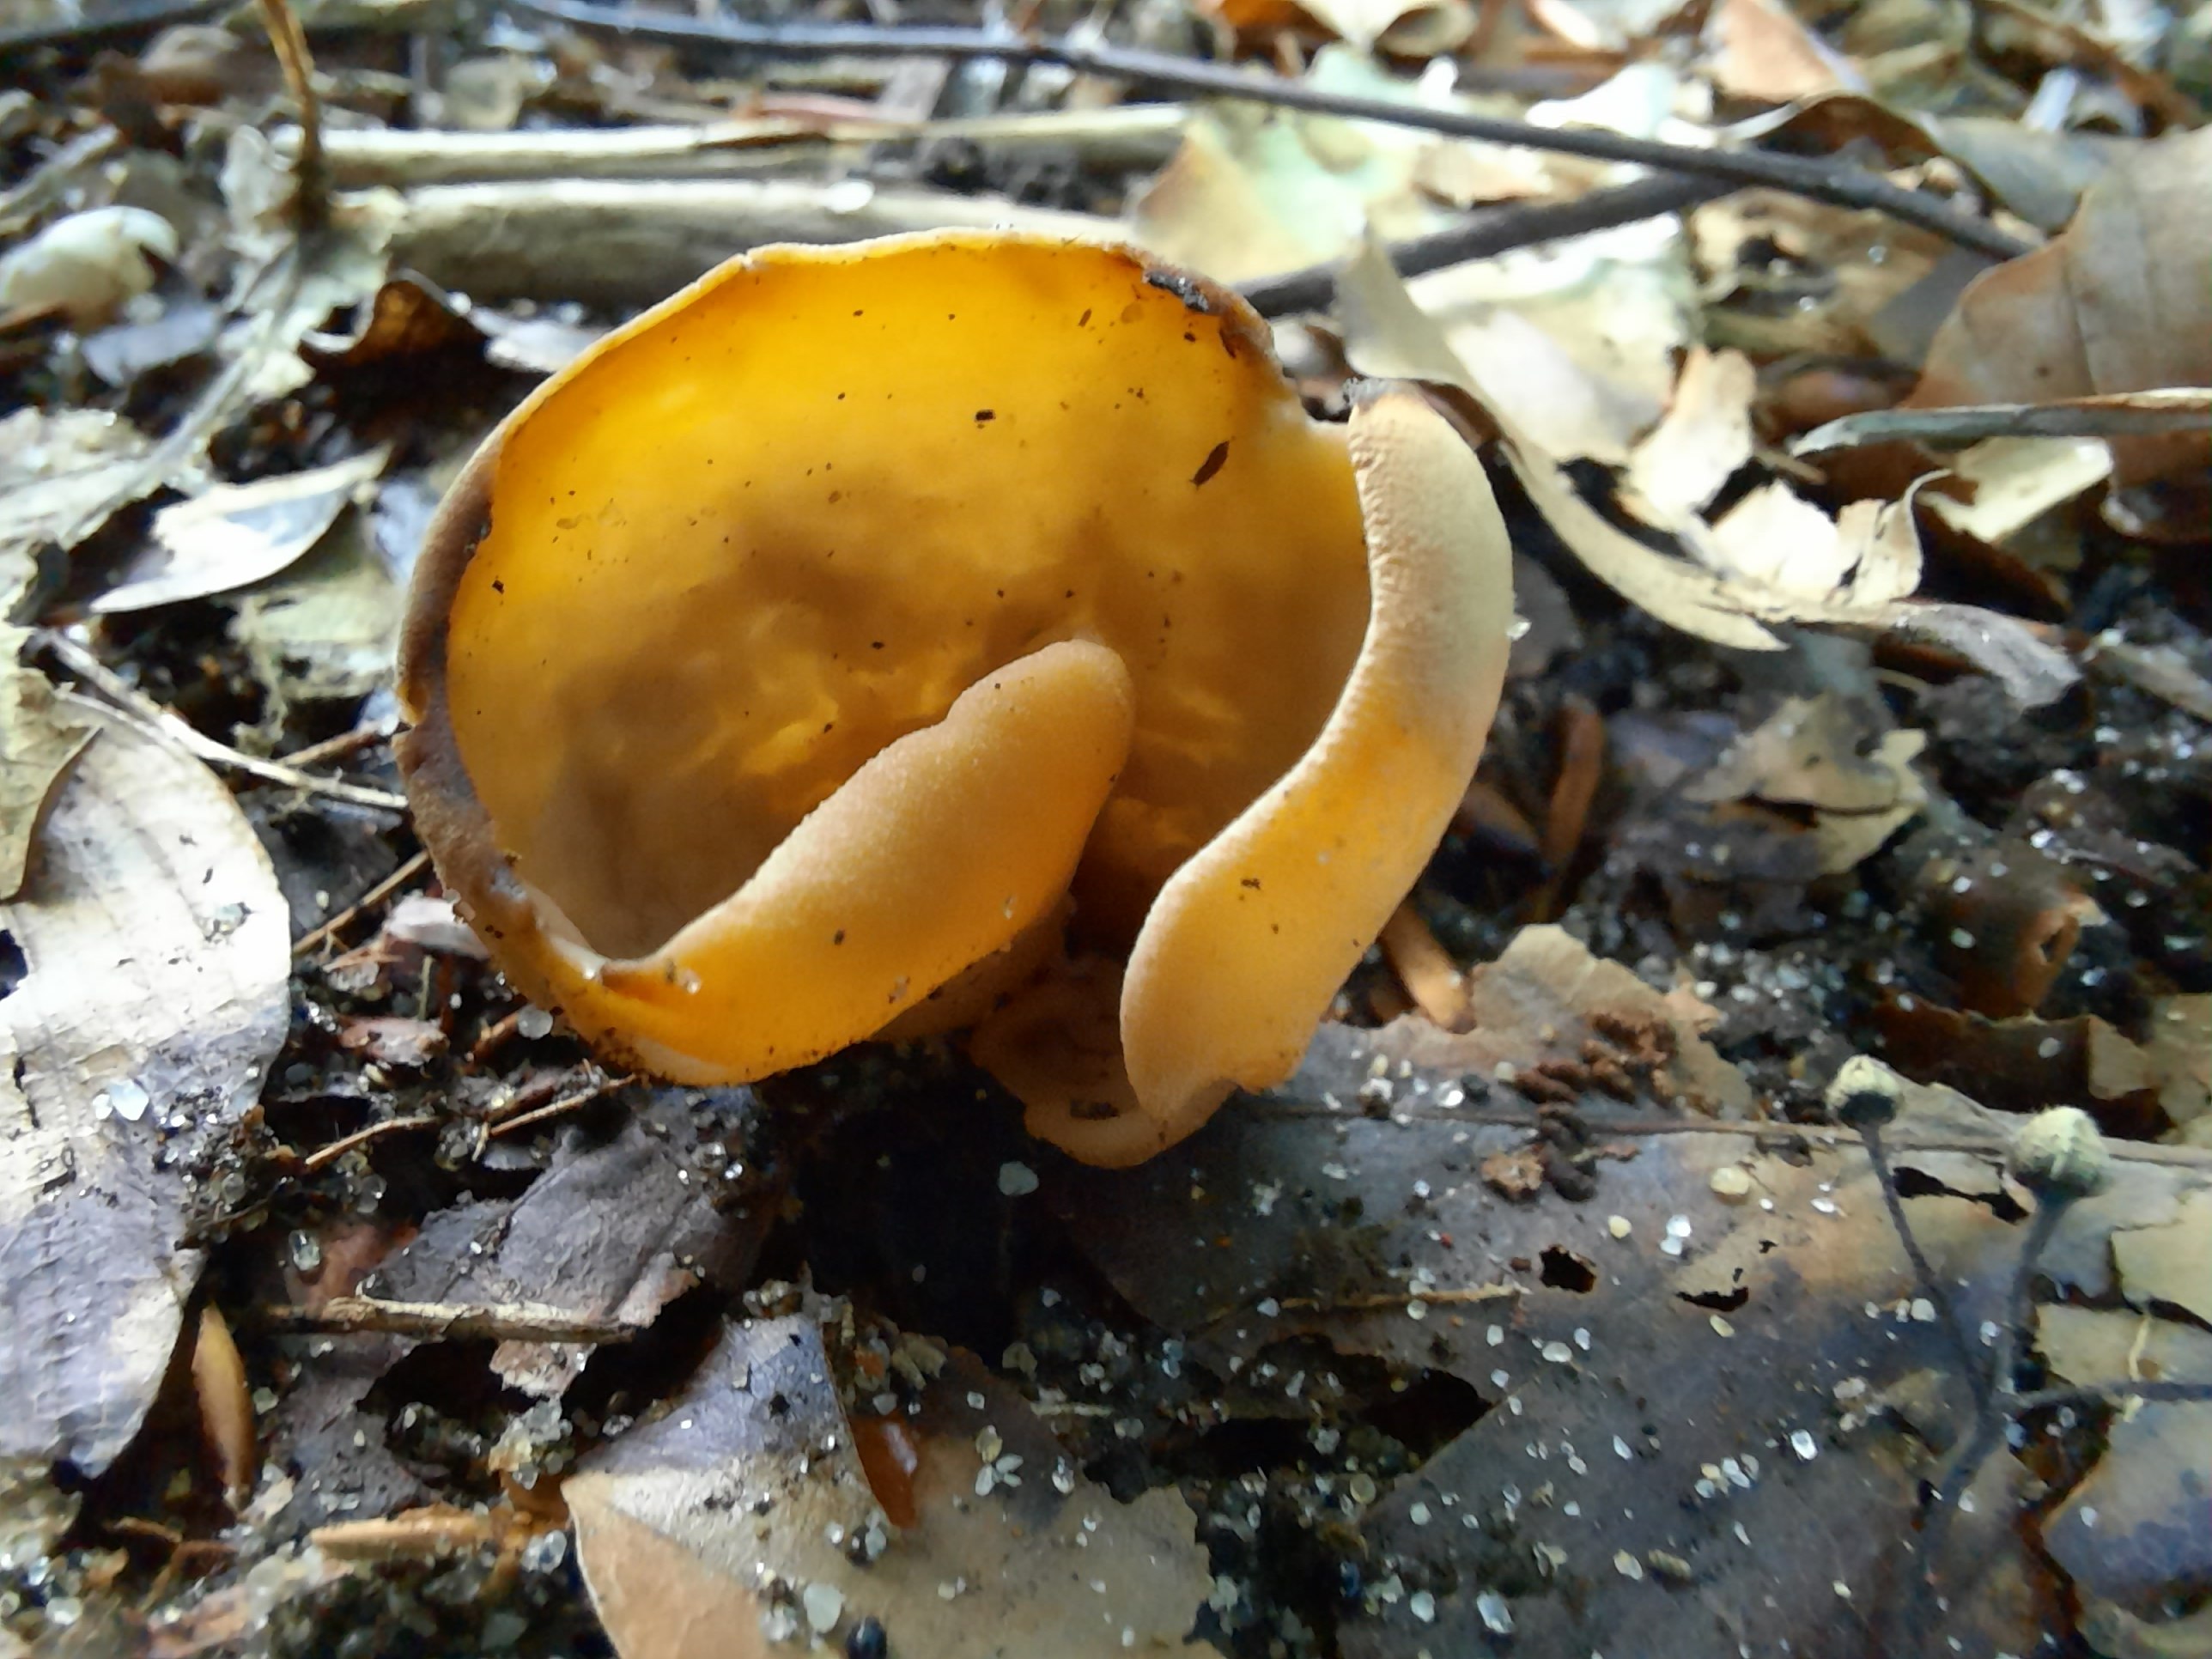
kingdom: Fungi
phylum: Ascomycota
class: Pezizomycetes
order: Pezizales
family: Otideaceae
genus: Otidea
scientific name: Otidea alutacea
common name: læder-ørebæger
